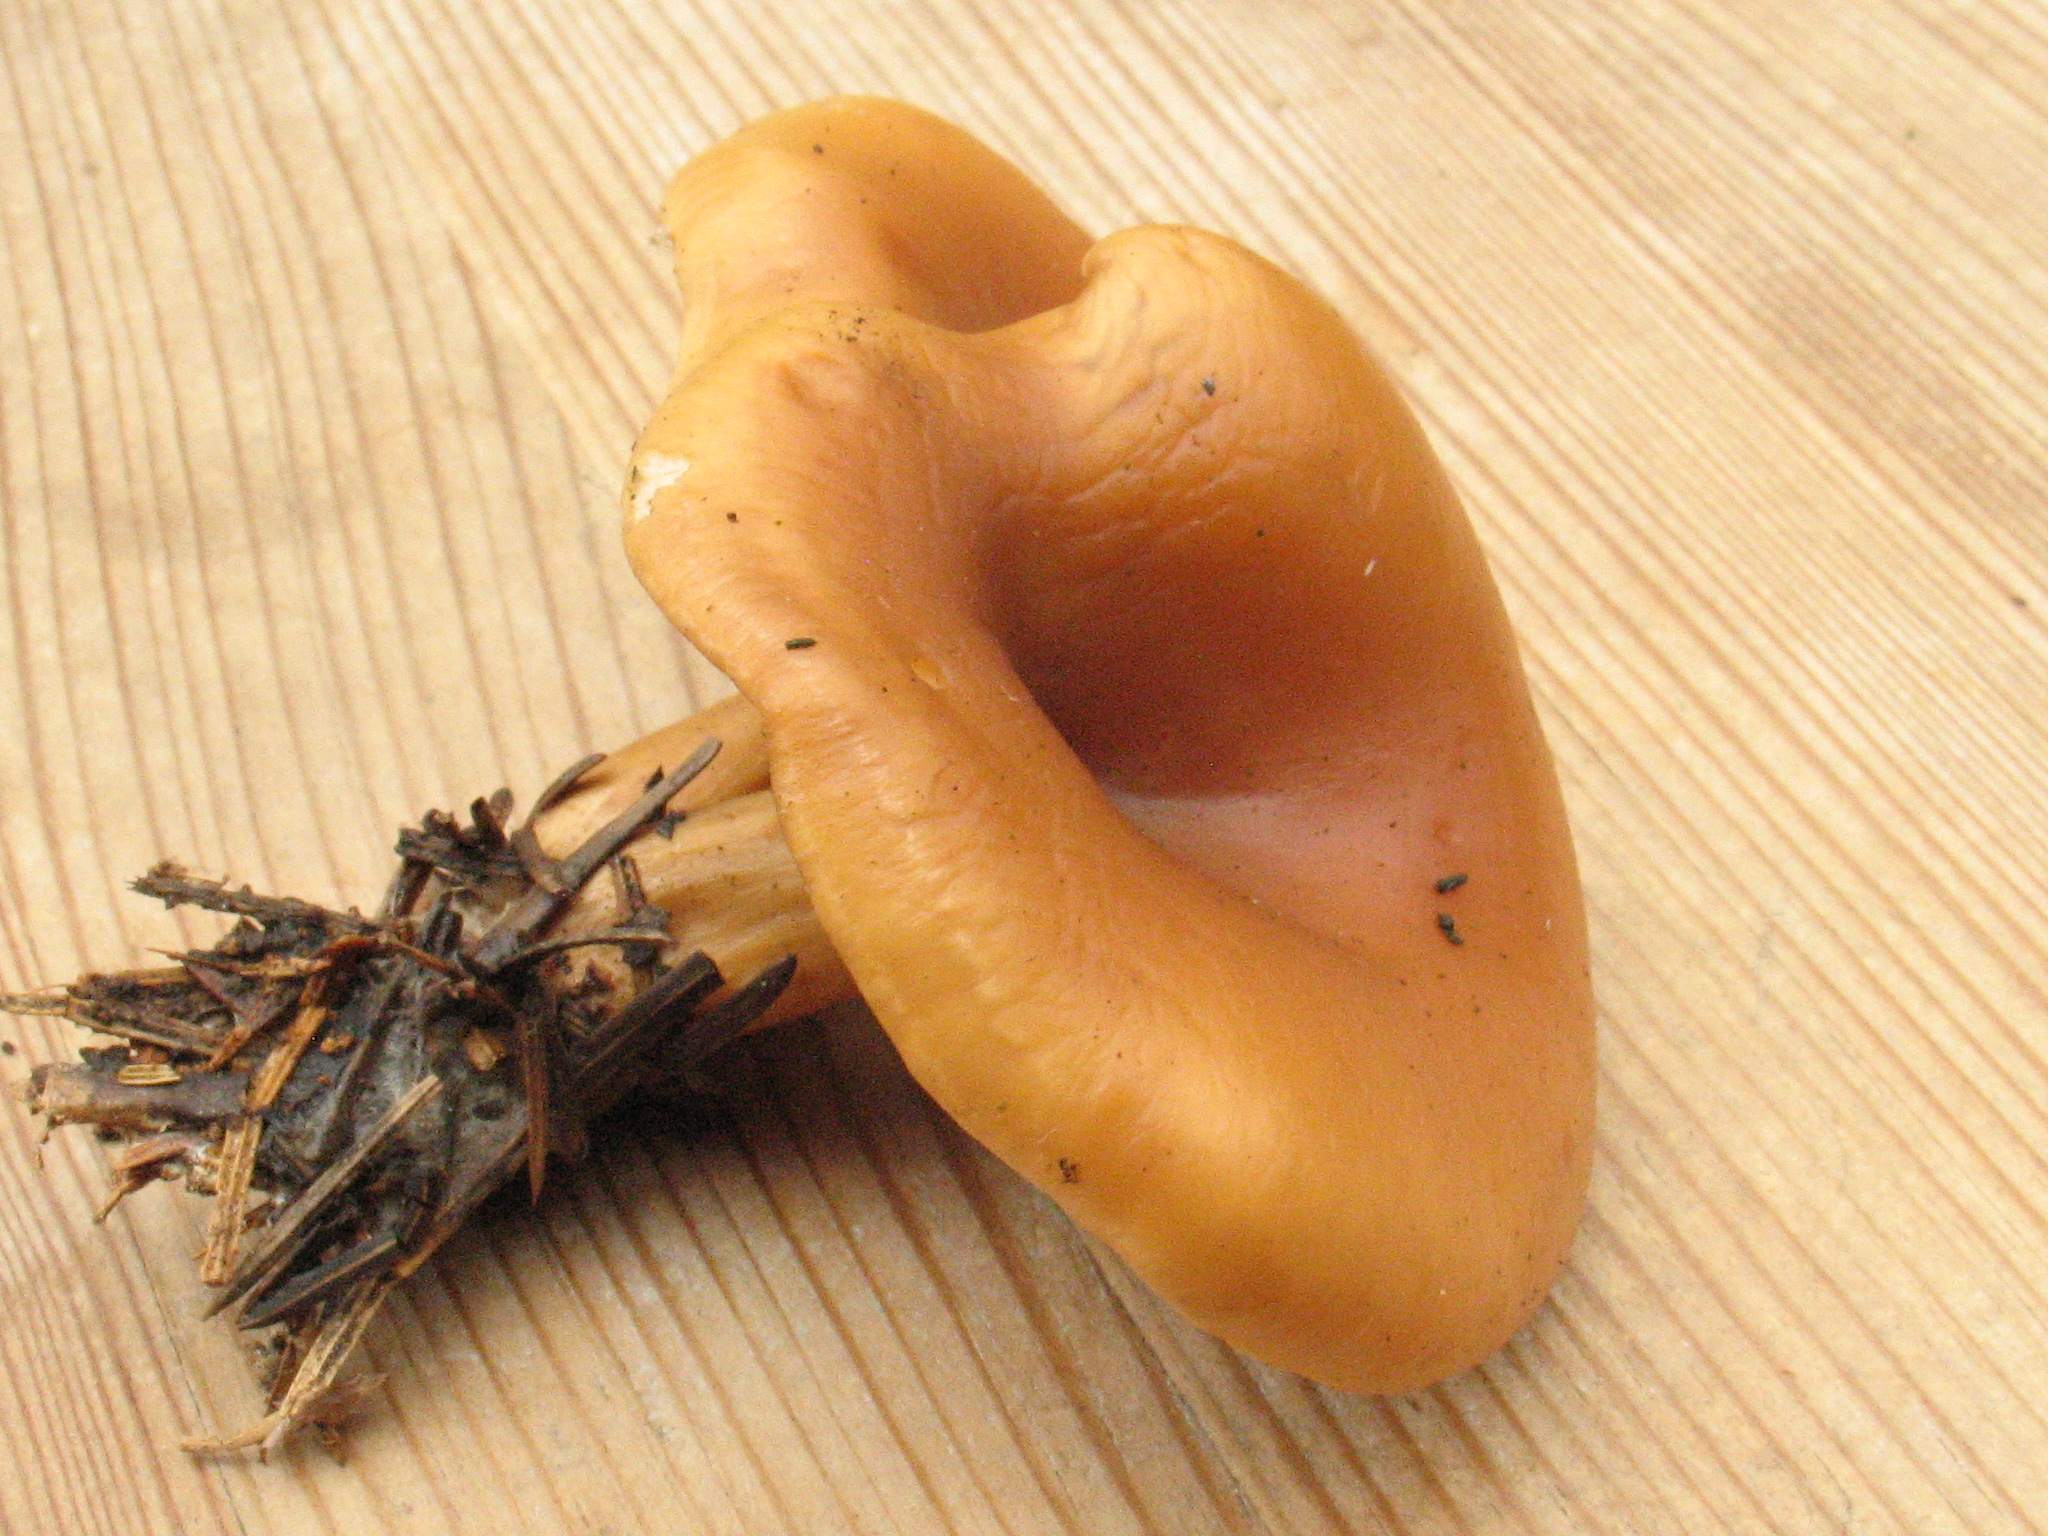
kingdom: Fungi
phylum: Basidiomycota
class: Agaricomycetes
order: Agaricales
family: Tricholomataceae
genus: Paralepista
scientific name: Paralepista flaccida
